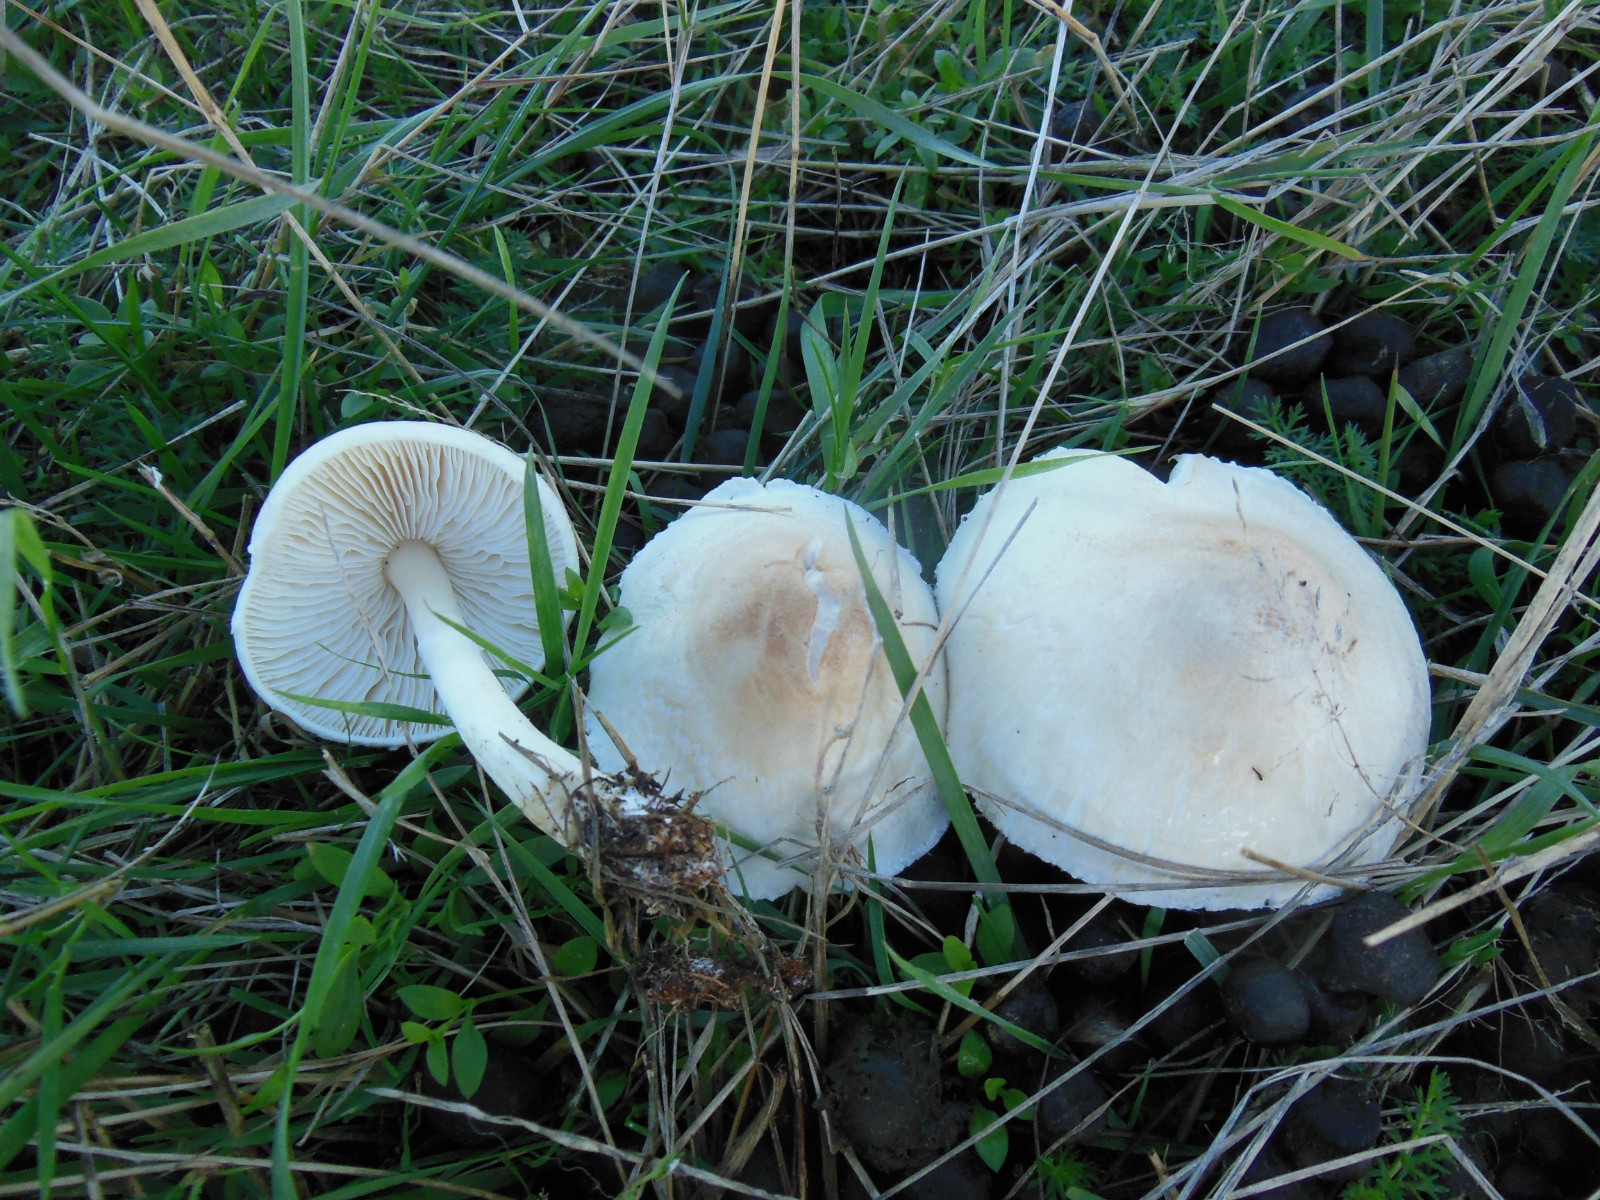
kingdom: Fungi
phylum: Basidiomycota
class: Agaricomycetes
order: Agaricales
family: Agaricaceae
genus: Lepiota
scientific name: Lepiota erminea
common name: hvid parasolhat
